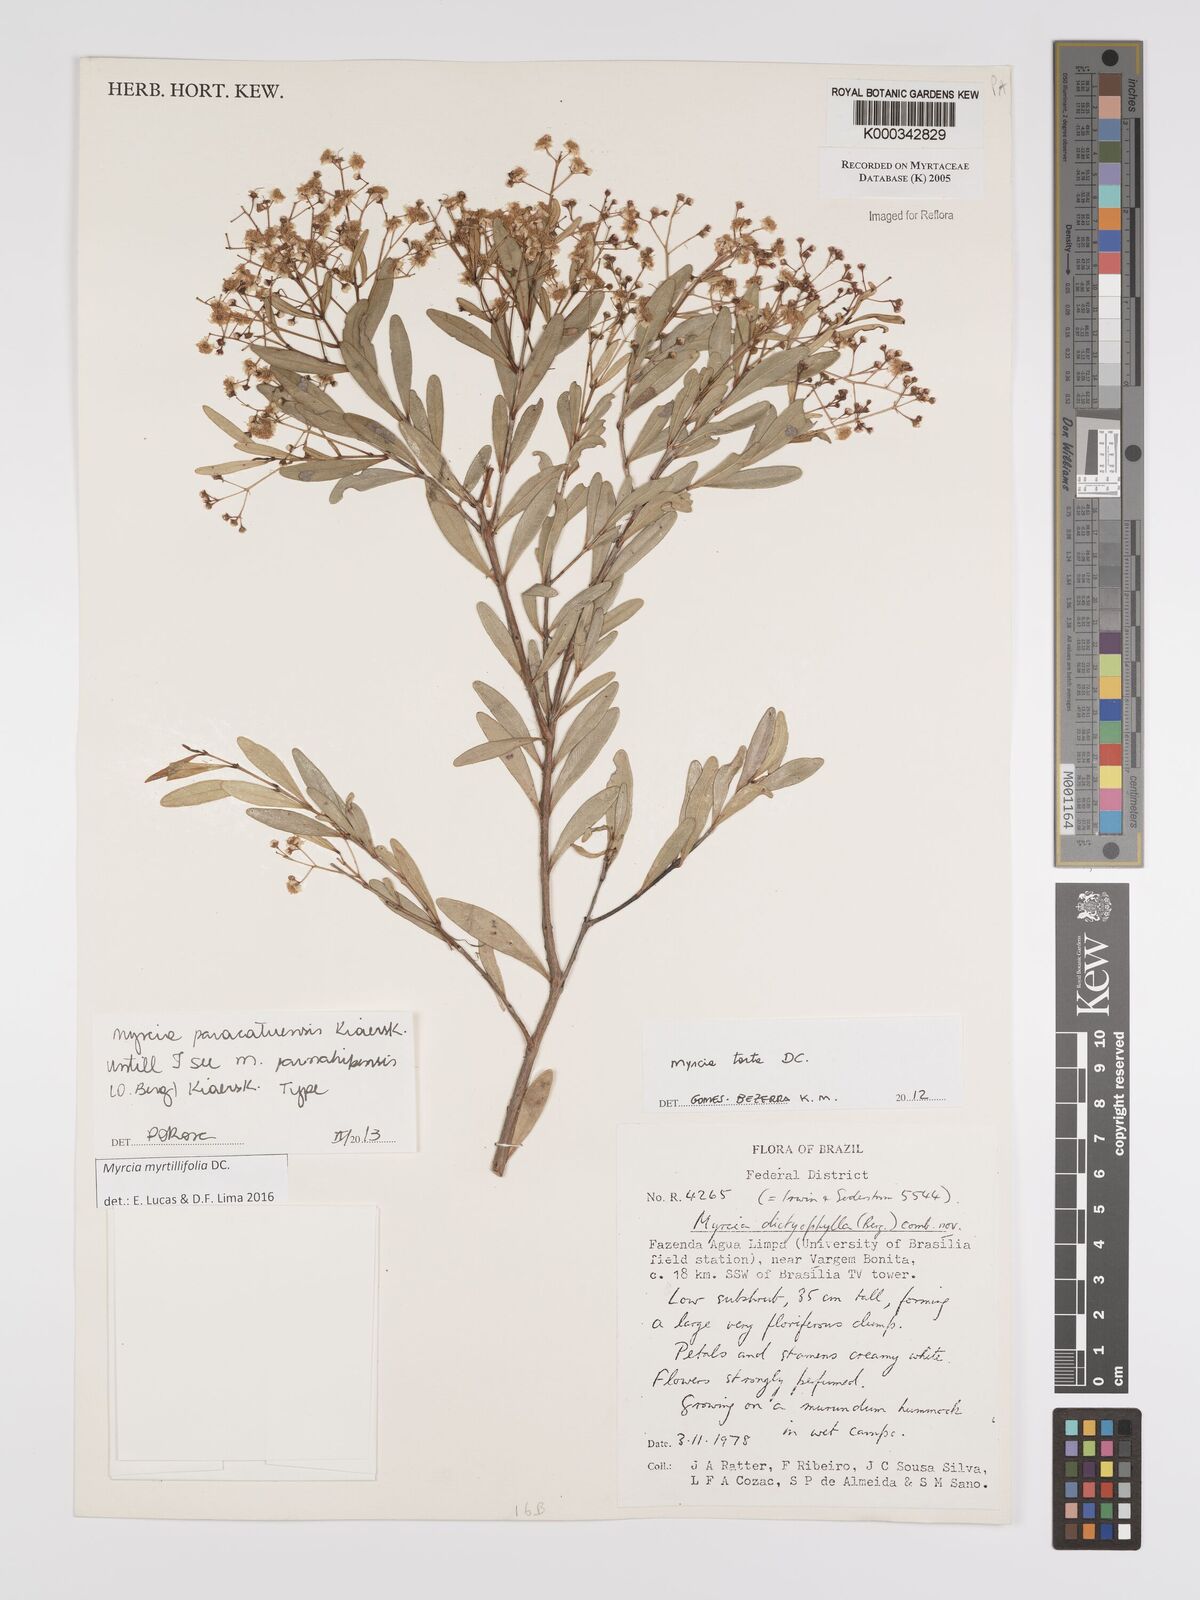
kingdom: Plantae
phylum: Tracheophyta
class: Magnoliopsida
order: Myrtales
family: Myrtaceae
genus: Myrcia
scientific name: Myrcia dictyophleba
